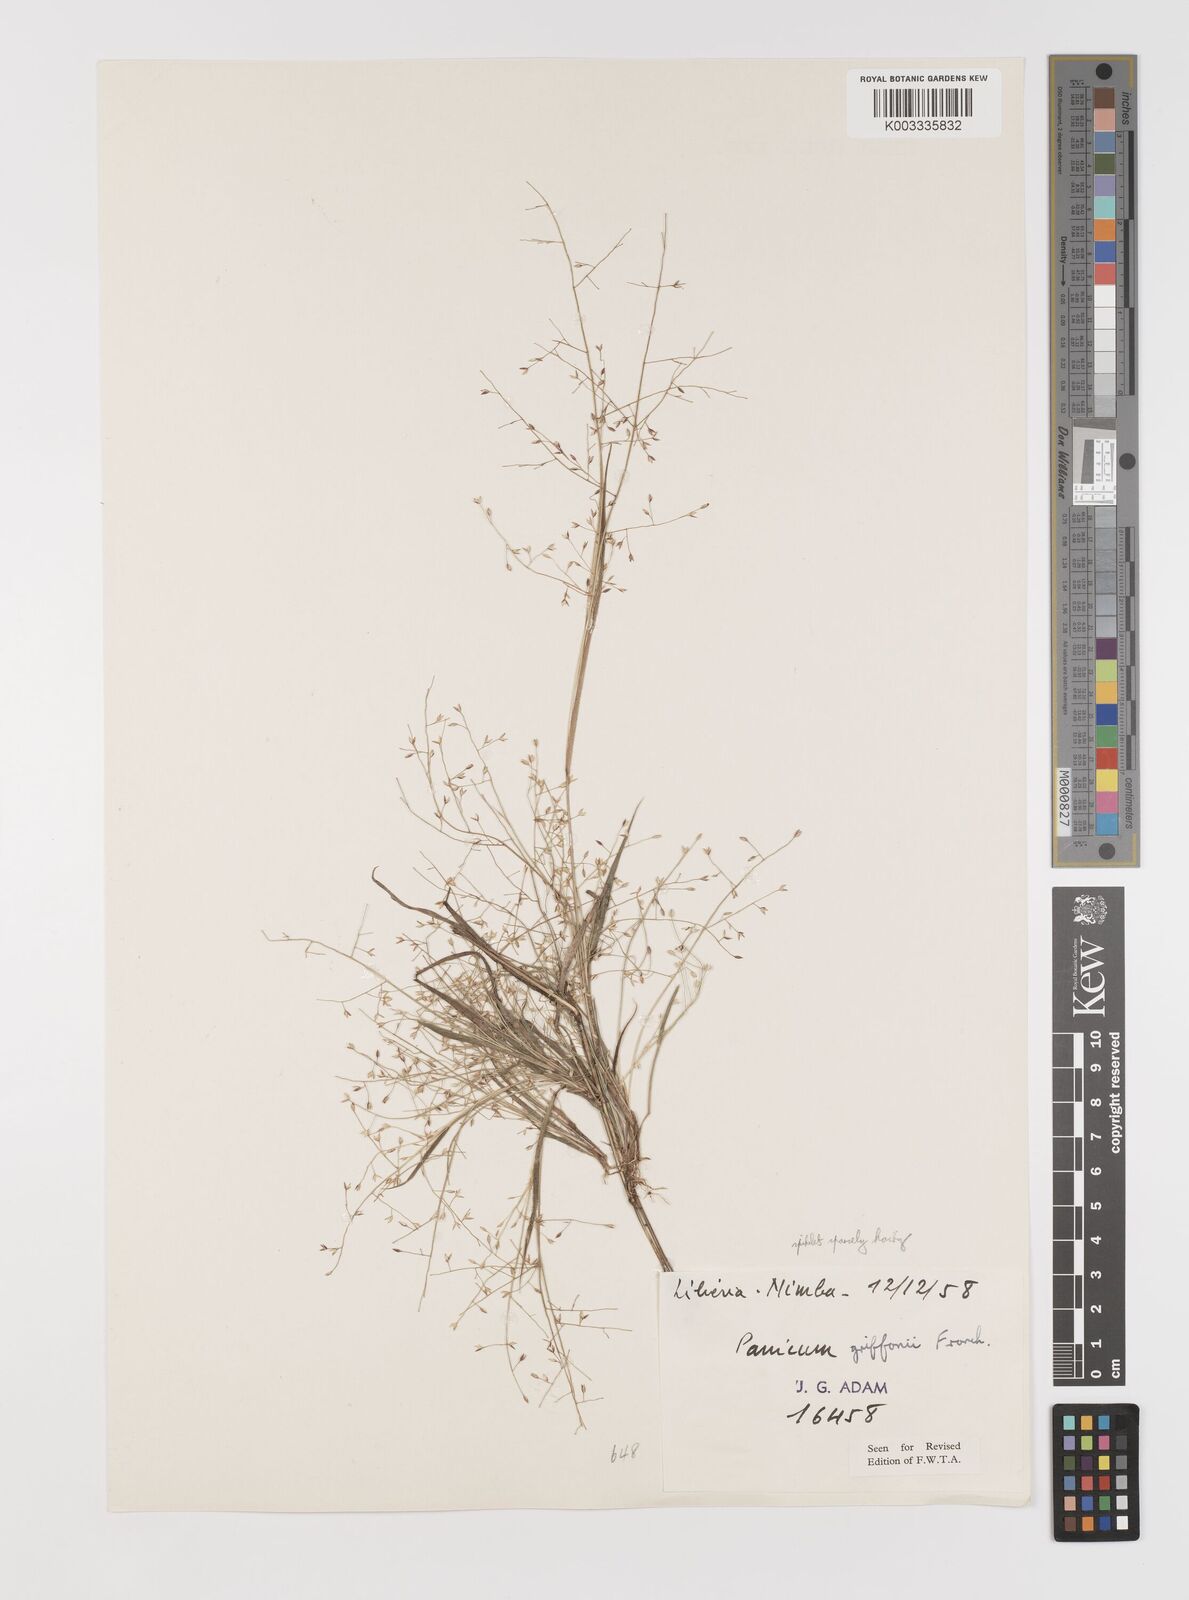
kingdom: Plantae
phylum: Tracheophyta
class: Liliopsida
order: Poales
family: Poaceae
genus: Panicum
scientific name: Panicum griffonii
